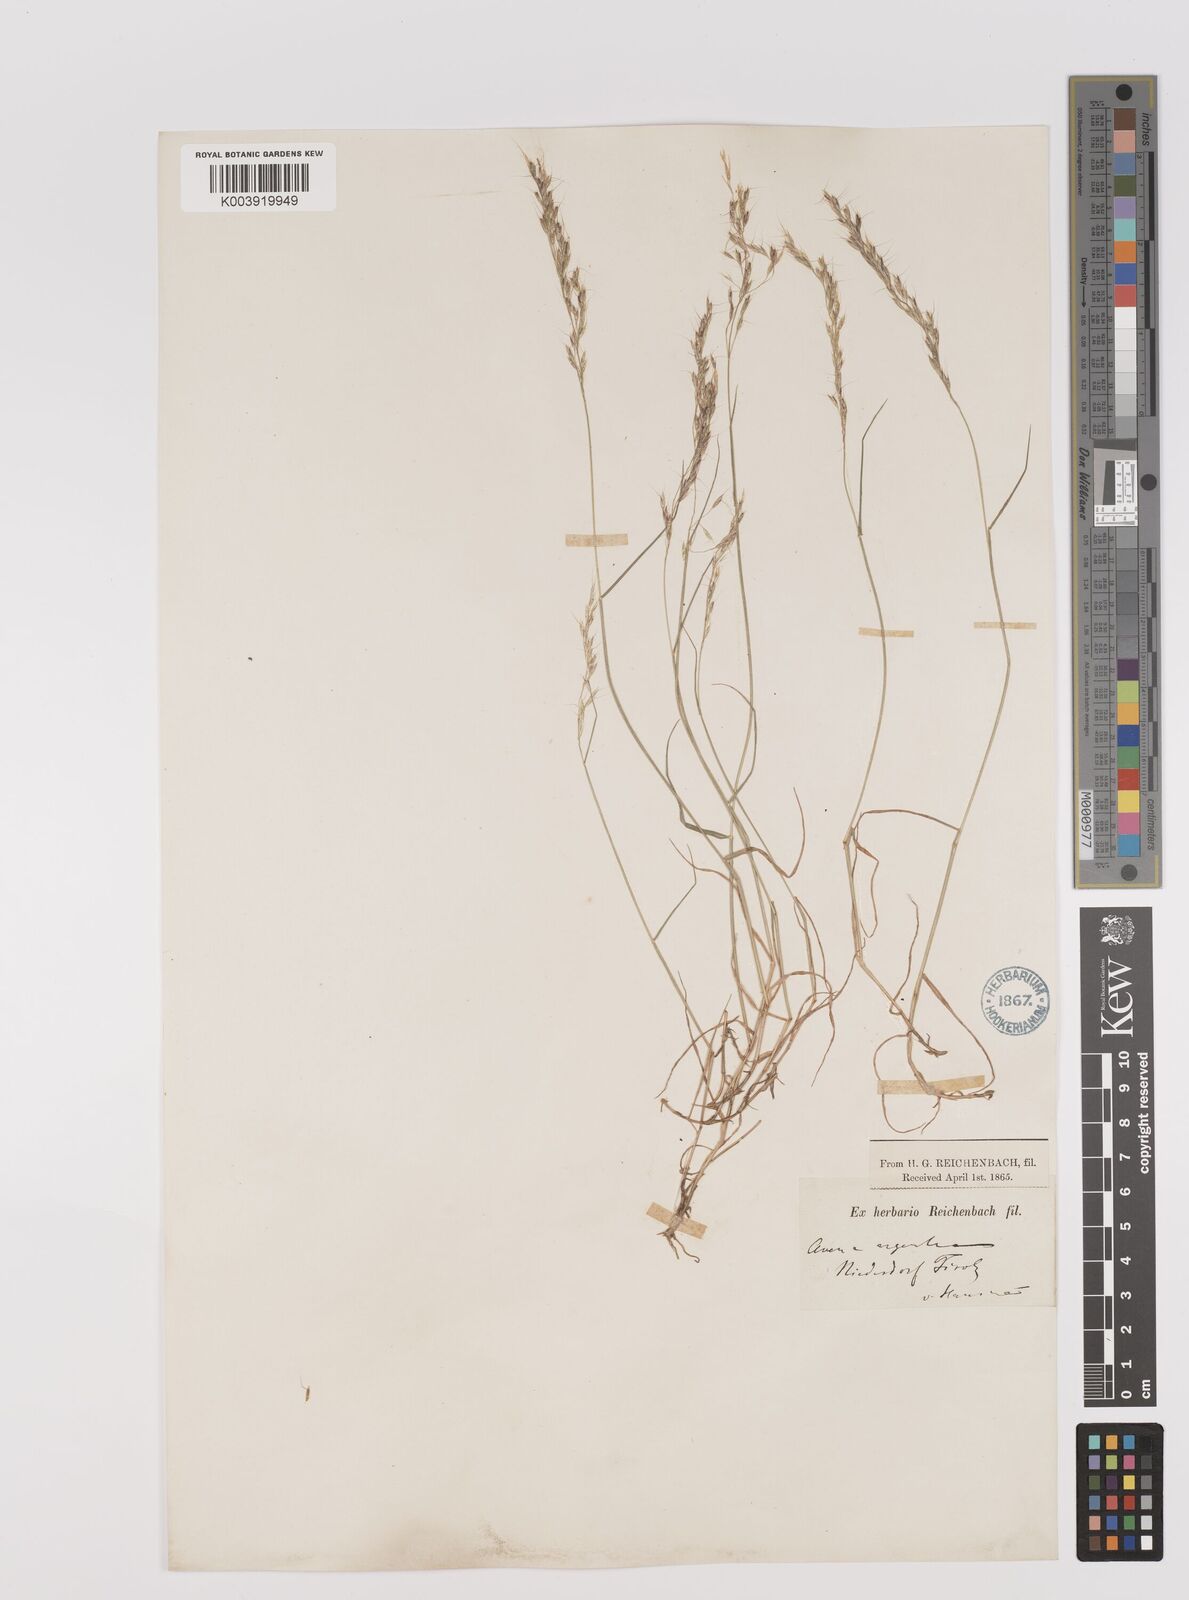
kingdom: Plantae
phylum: Tracheophyta
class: Liliopsida
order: Poales
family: Poaceae
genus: Trisetum
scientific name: Trisetum alpestre
